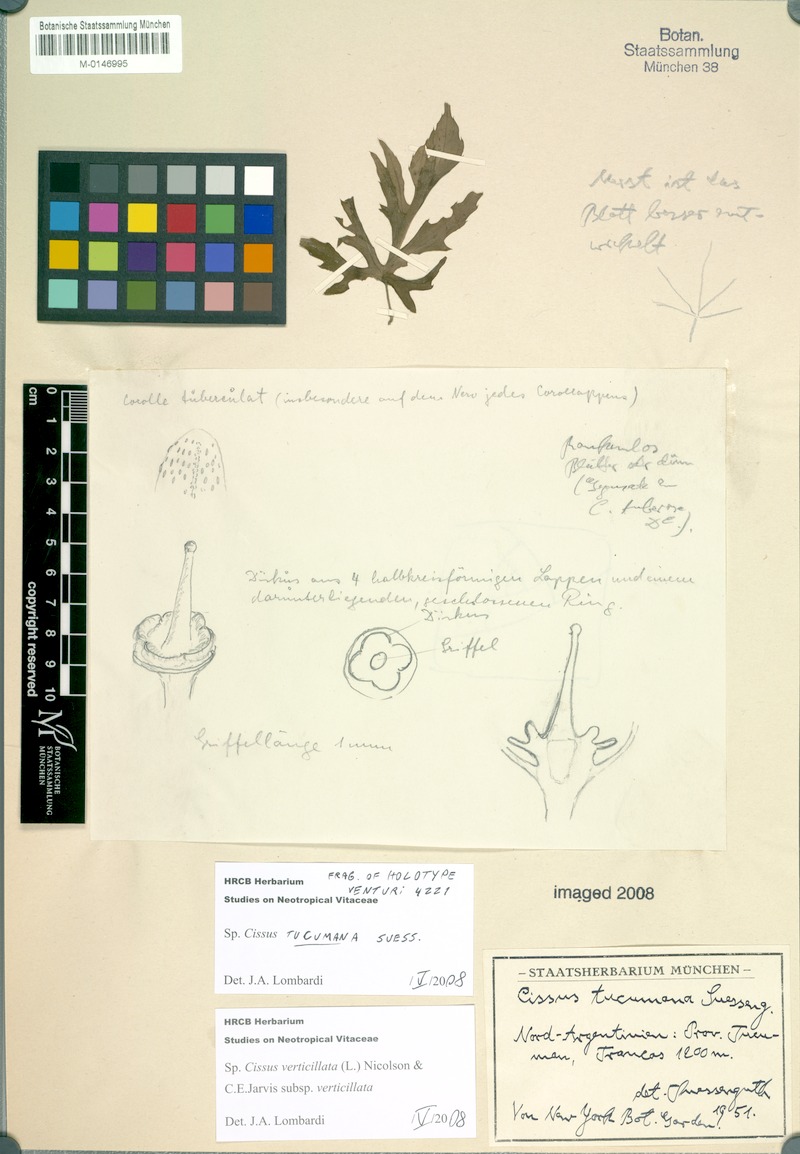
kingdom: Plantae
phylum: Tracheophyta
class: Magnoliopsida
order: Vitales
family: Vitaceae
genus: Cissus
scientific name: Cissus verticillata
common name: Princess vine
